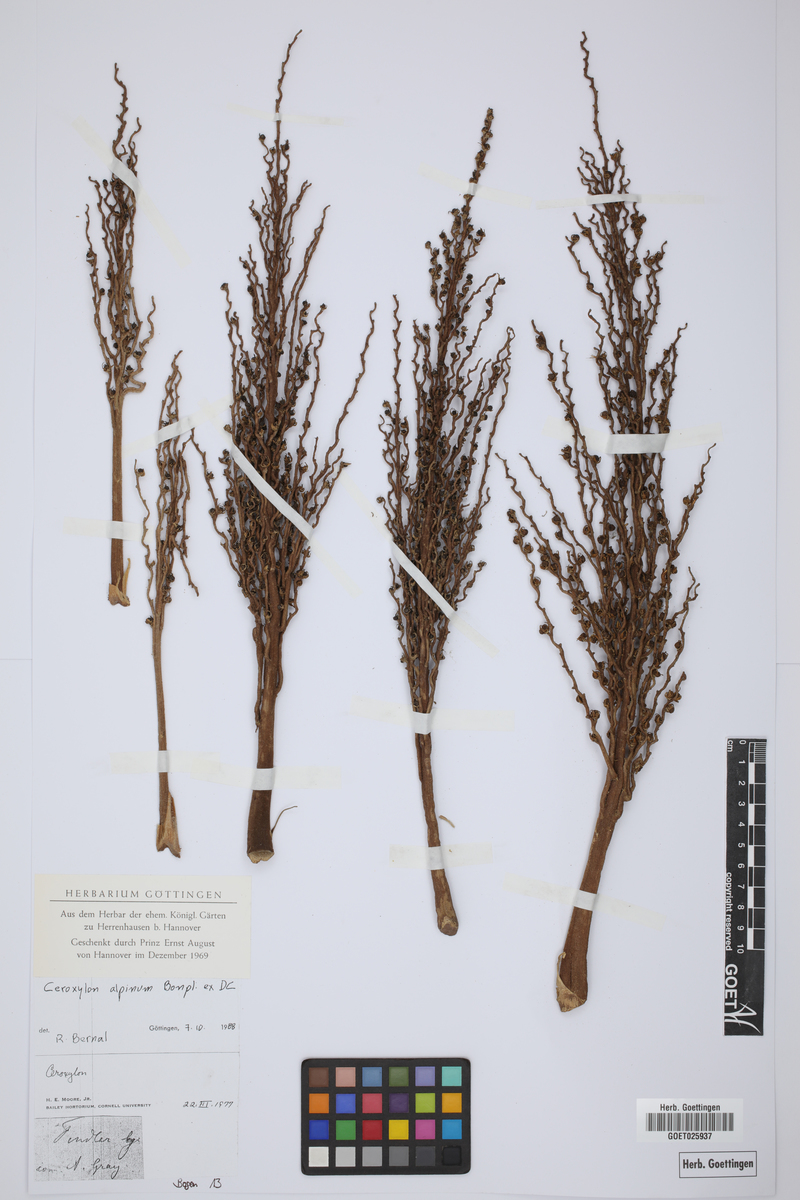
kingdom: Plantae
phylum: Tracheophyta
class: Liliopsida
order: Arecales
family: Arecaceae
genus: Ceroxylon
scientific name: Ceroxylon alpinum
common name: Wax palm
